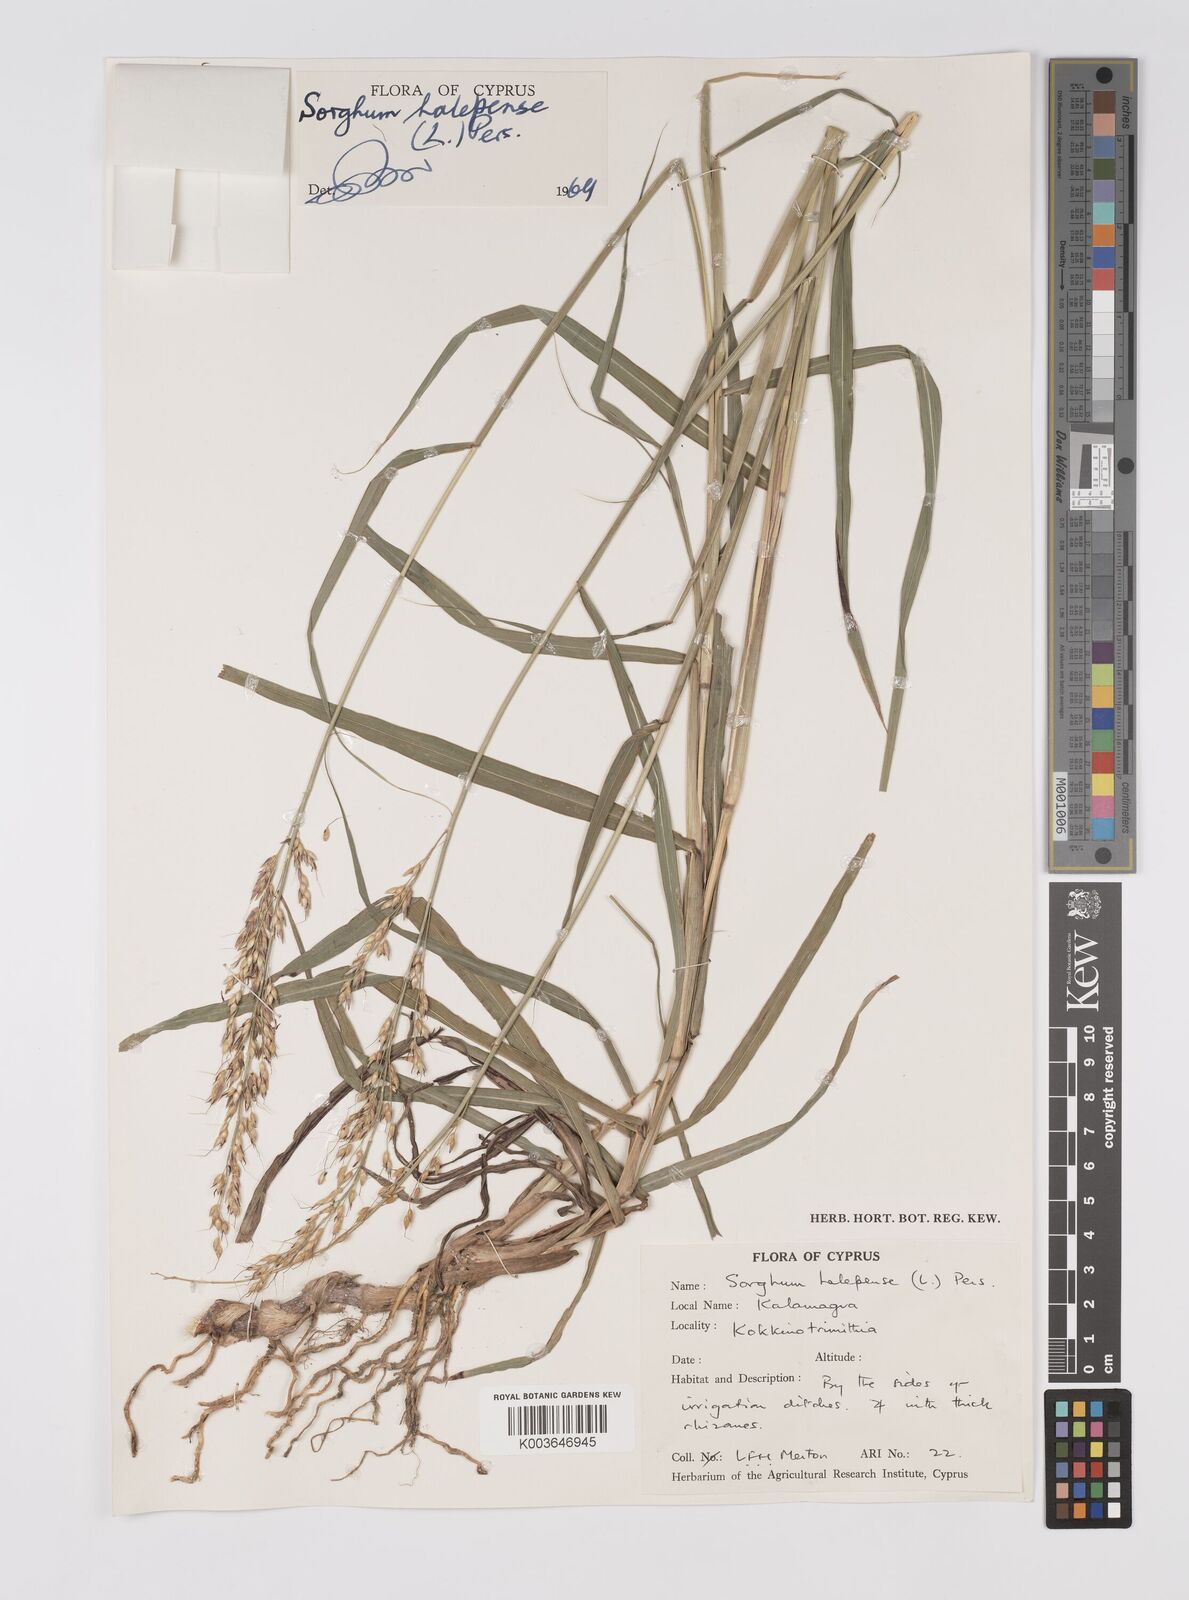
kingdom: Plantae
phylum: Tracheophyta
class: Liliopsida
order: Poales
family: Poaceae
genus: Sorghum
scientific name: Sorghum halepense
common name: Johnson-grass
